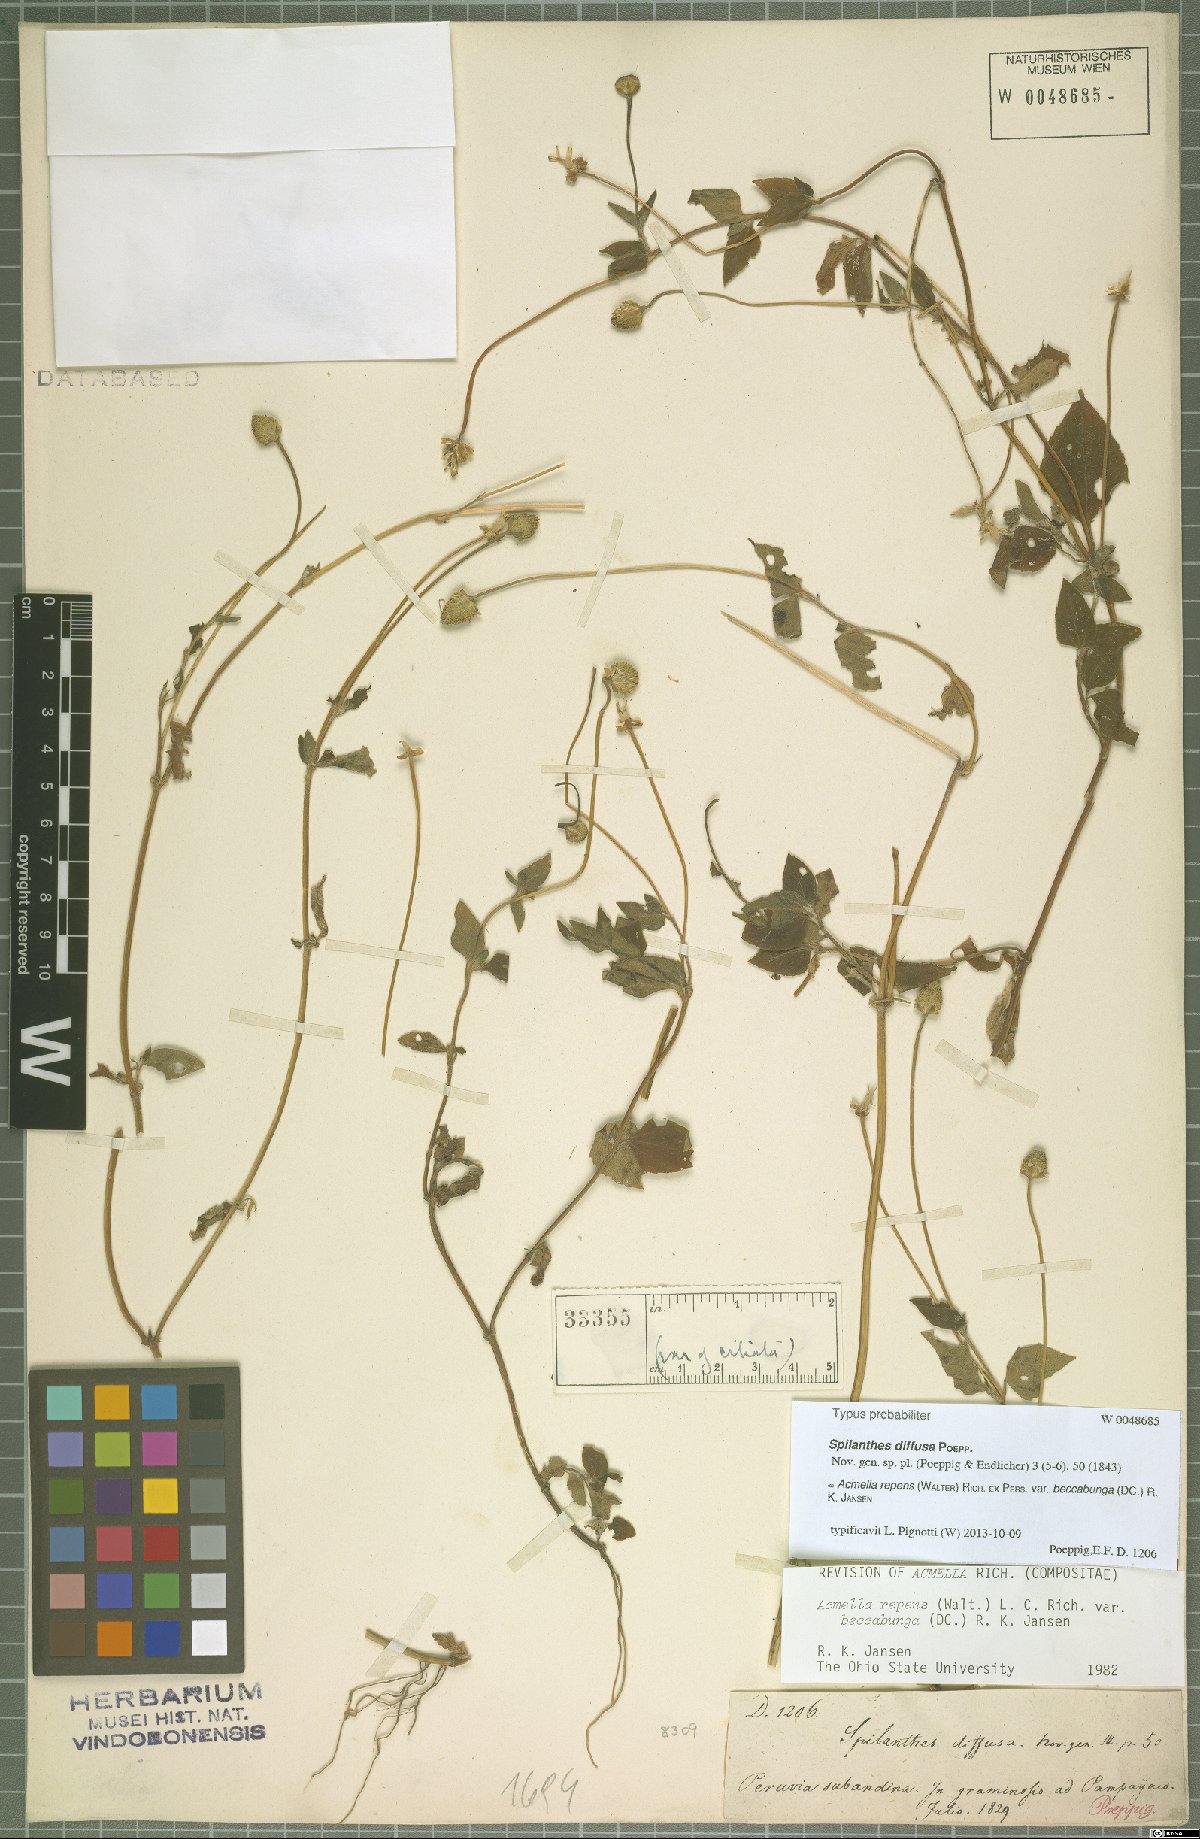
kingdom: Plantae
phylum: Tracheophyta
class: Magnoliopsida
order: Asterales
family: Asteraceae
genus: Acmella
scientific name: Acmella repens
